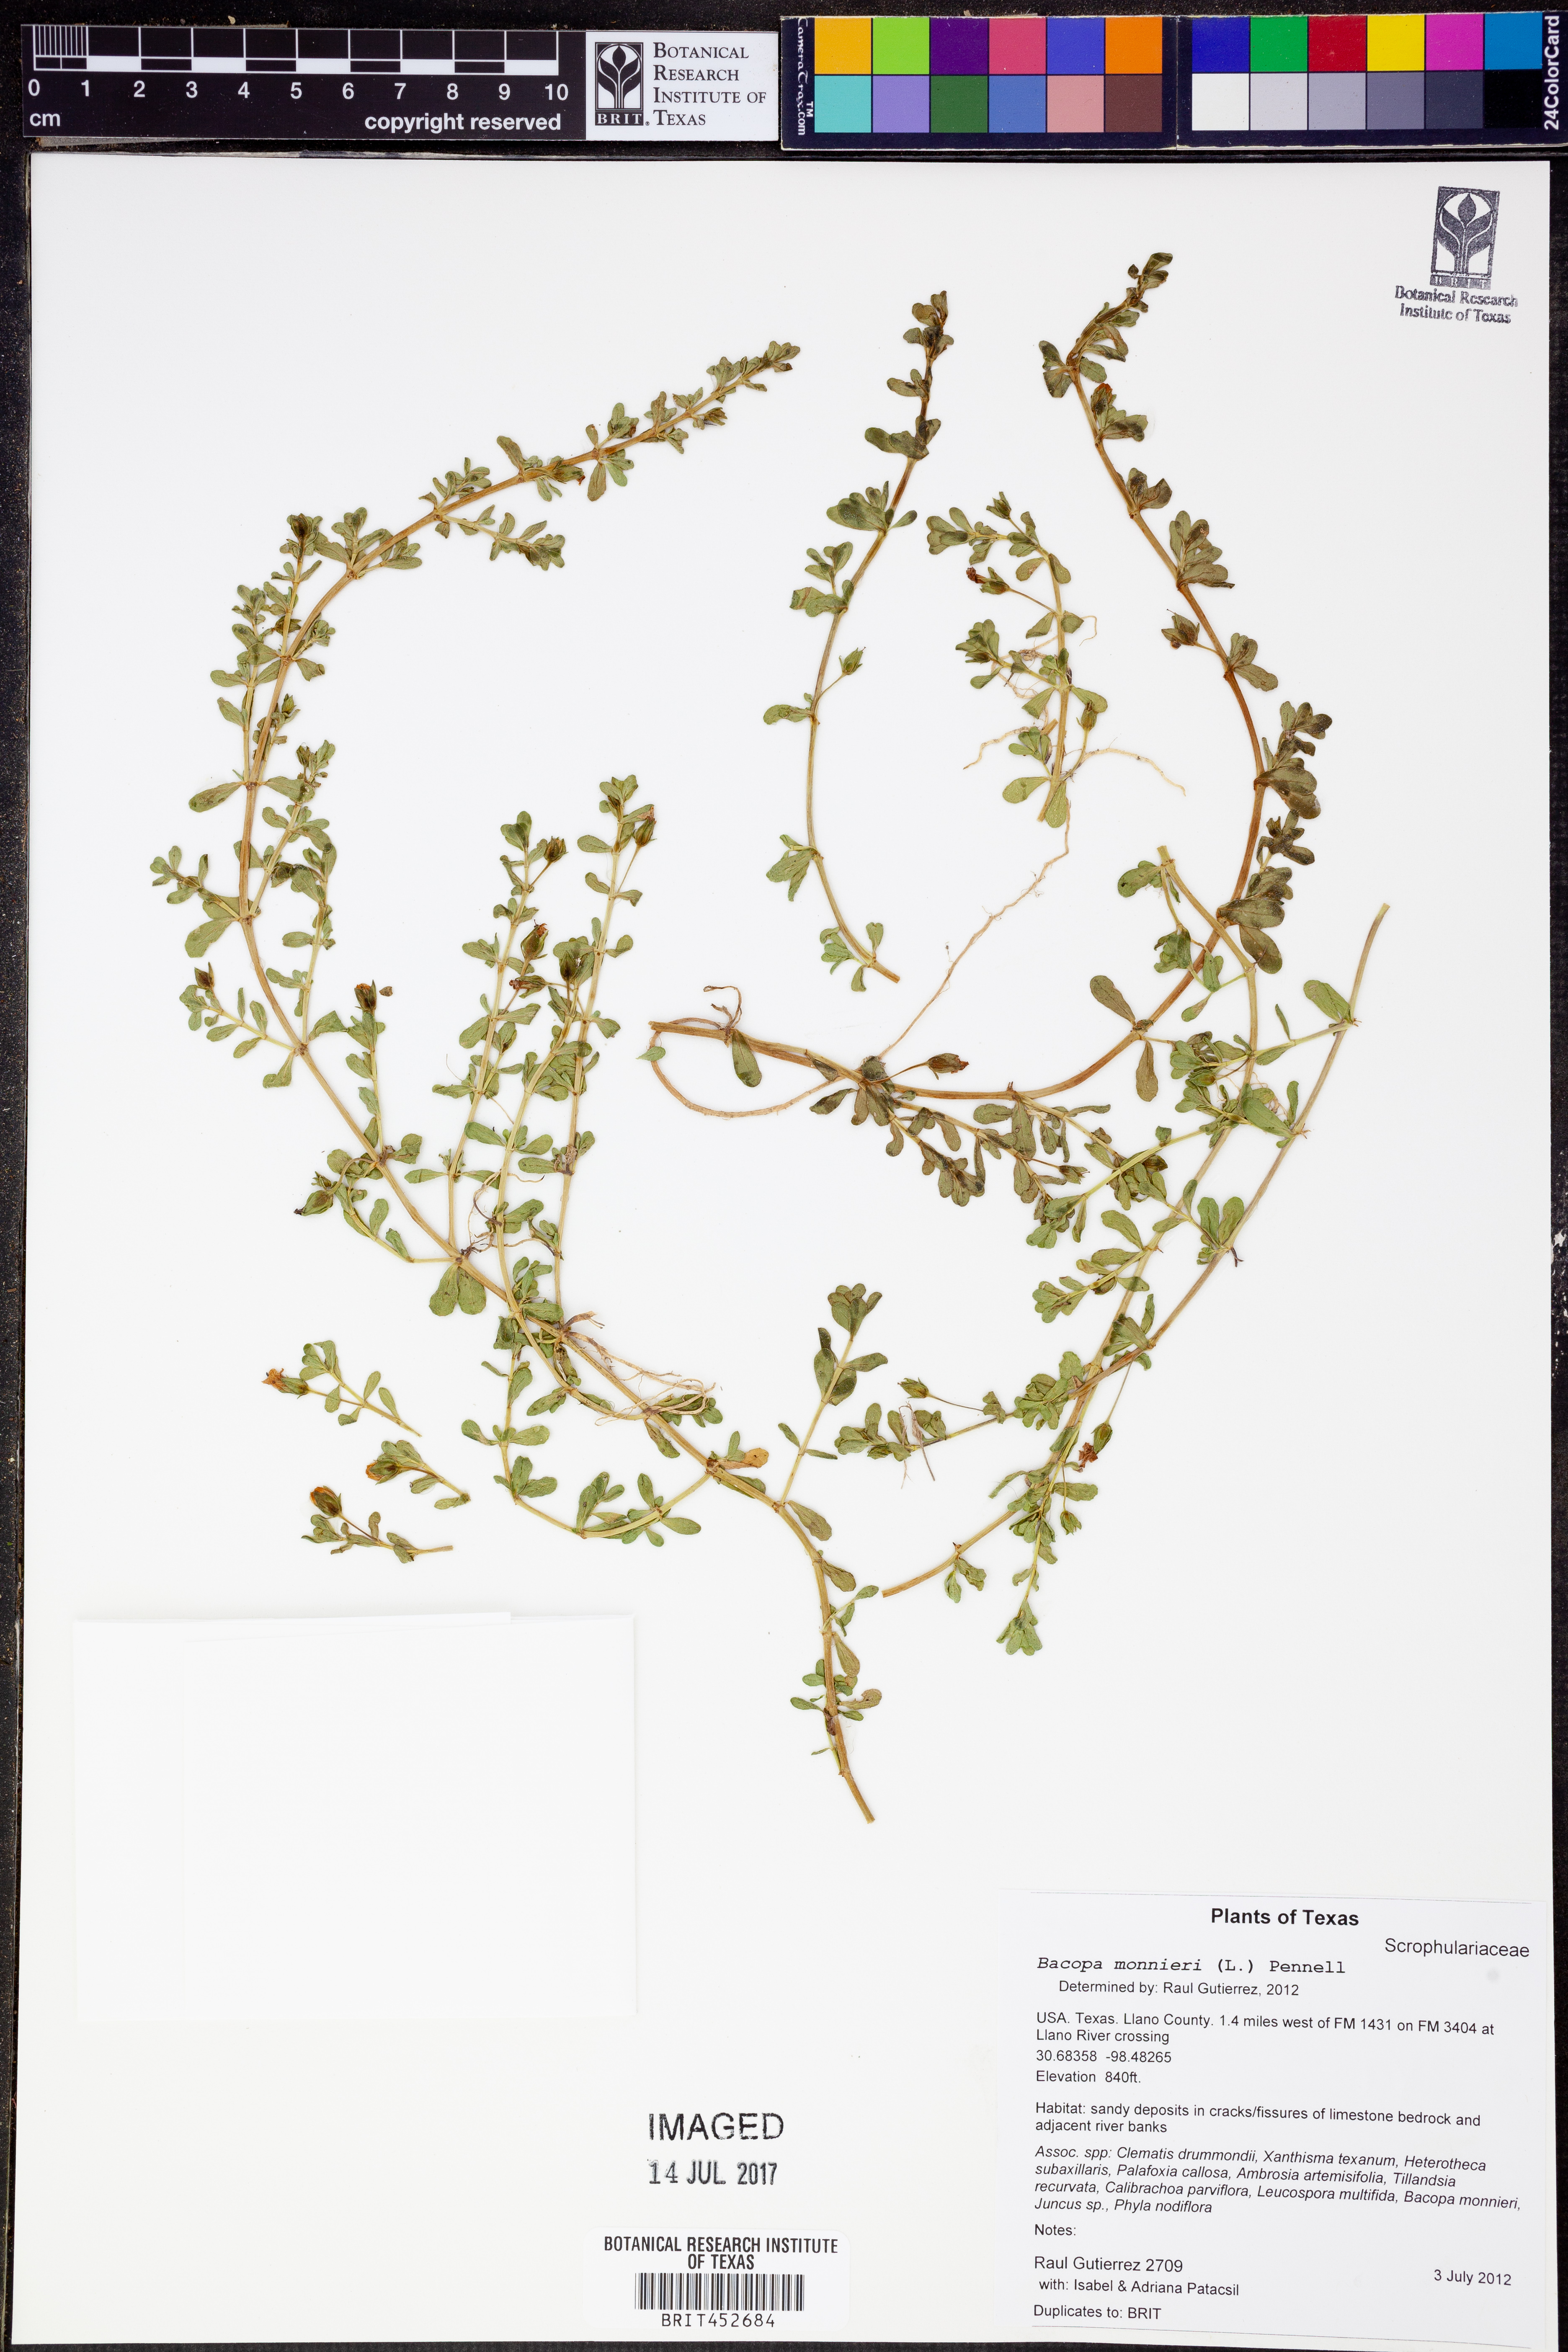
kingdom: Plantae
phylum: Tracheophyta
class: Magnoliopsida
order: Lamiales
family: Plantaginaceae
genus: Bacopa
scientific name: Bacopa monnieri
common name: Indian-pennywort
